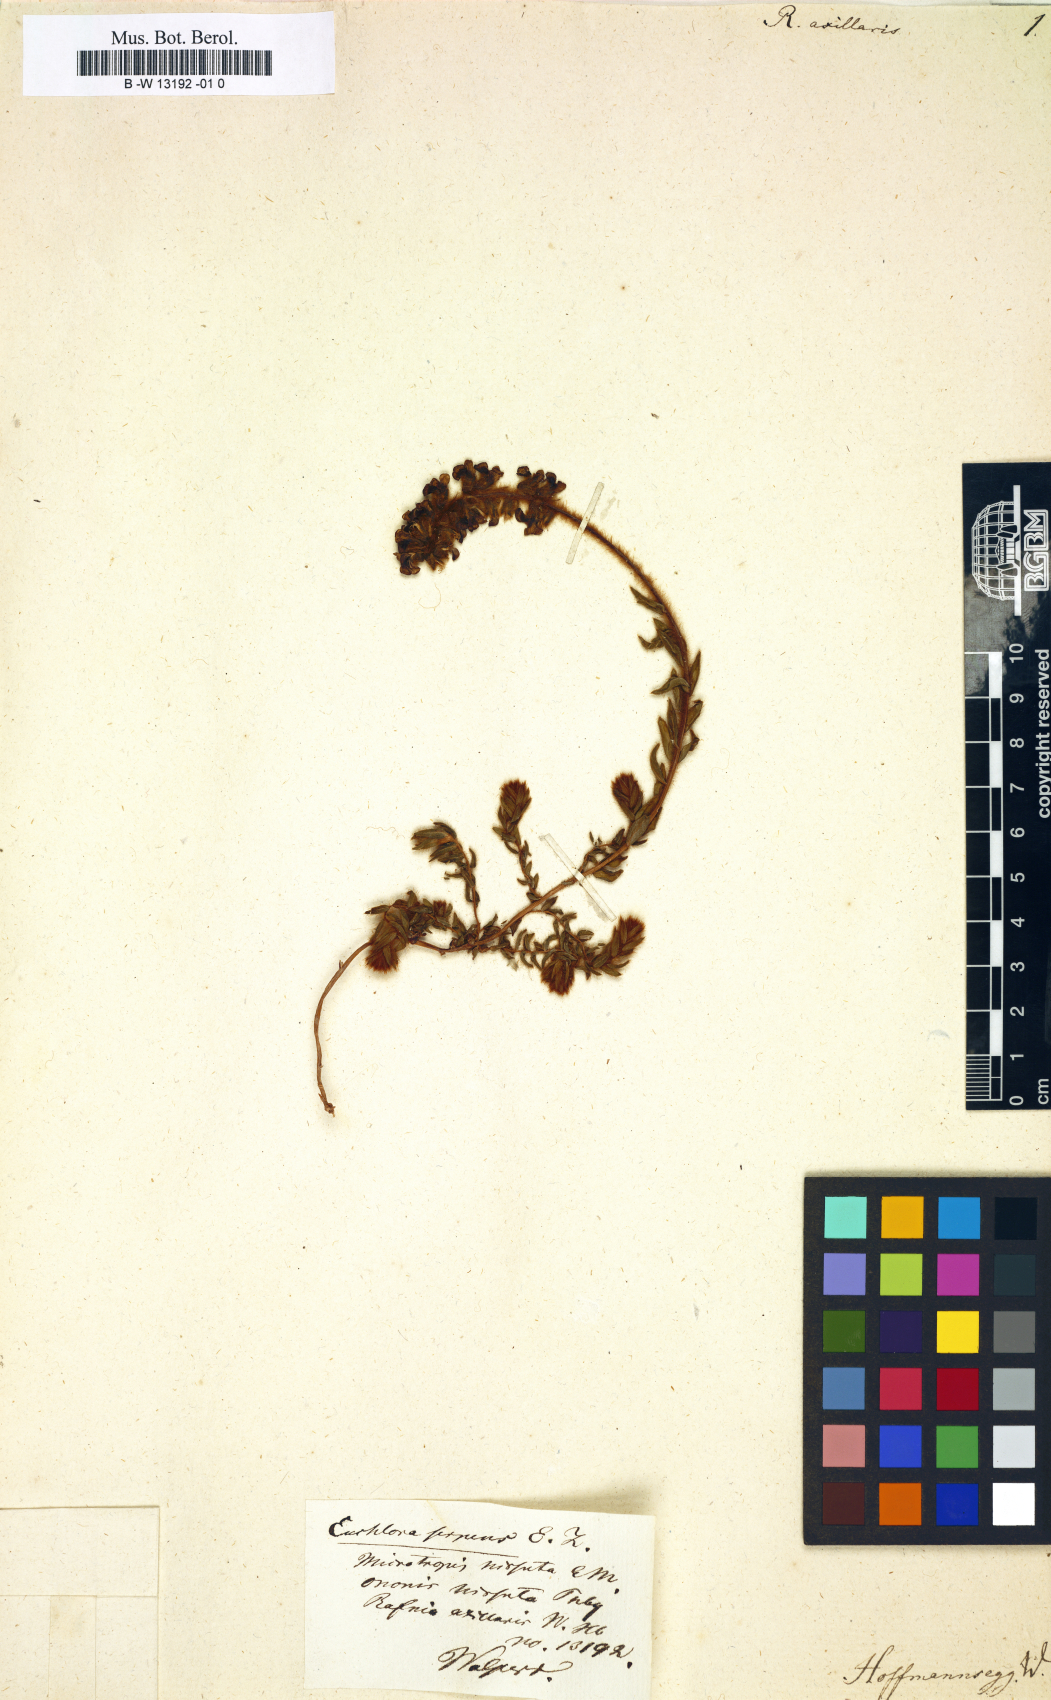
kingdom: Plantae
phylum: Tracheophyta
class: Magnoliopsida
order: Fabales
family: Fabaceae
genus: Rafnia
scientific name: Rafnia axillaris
